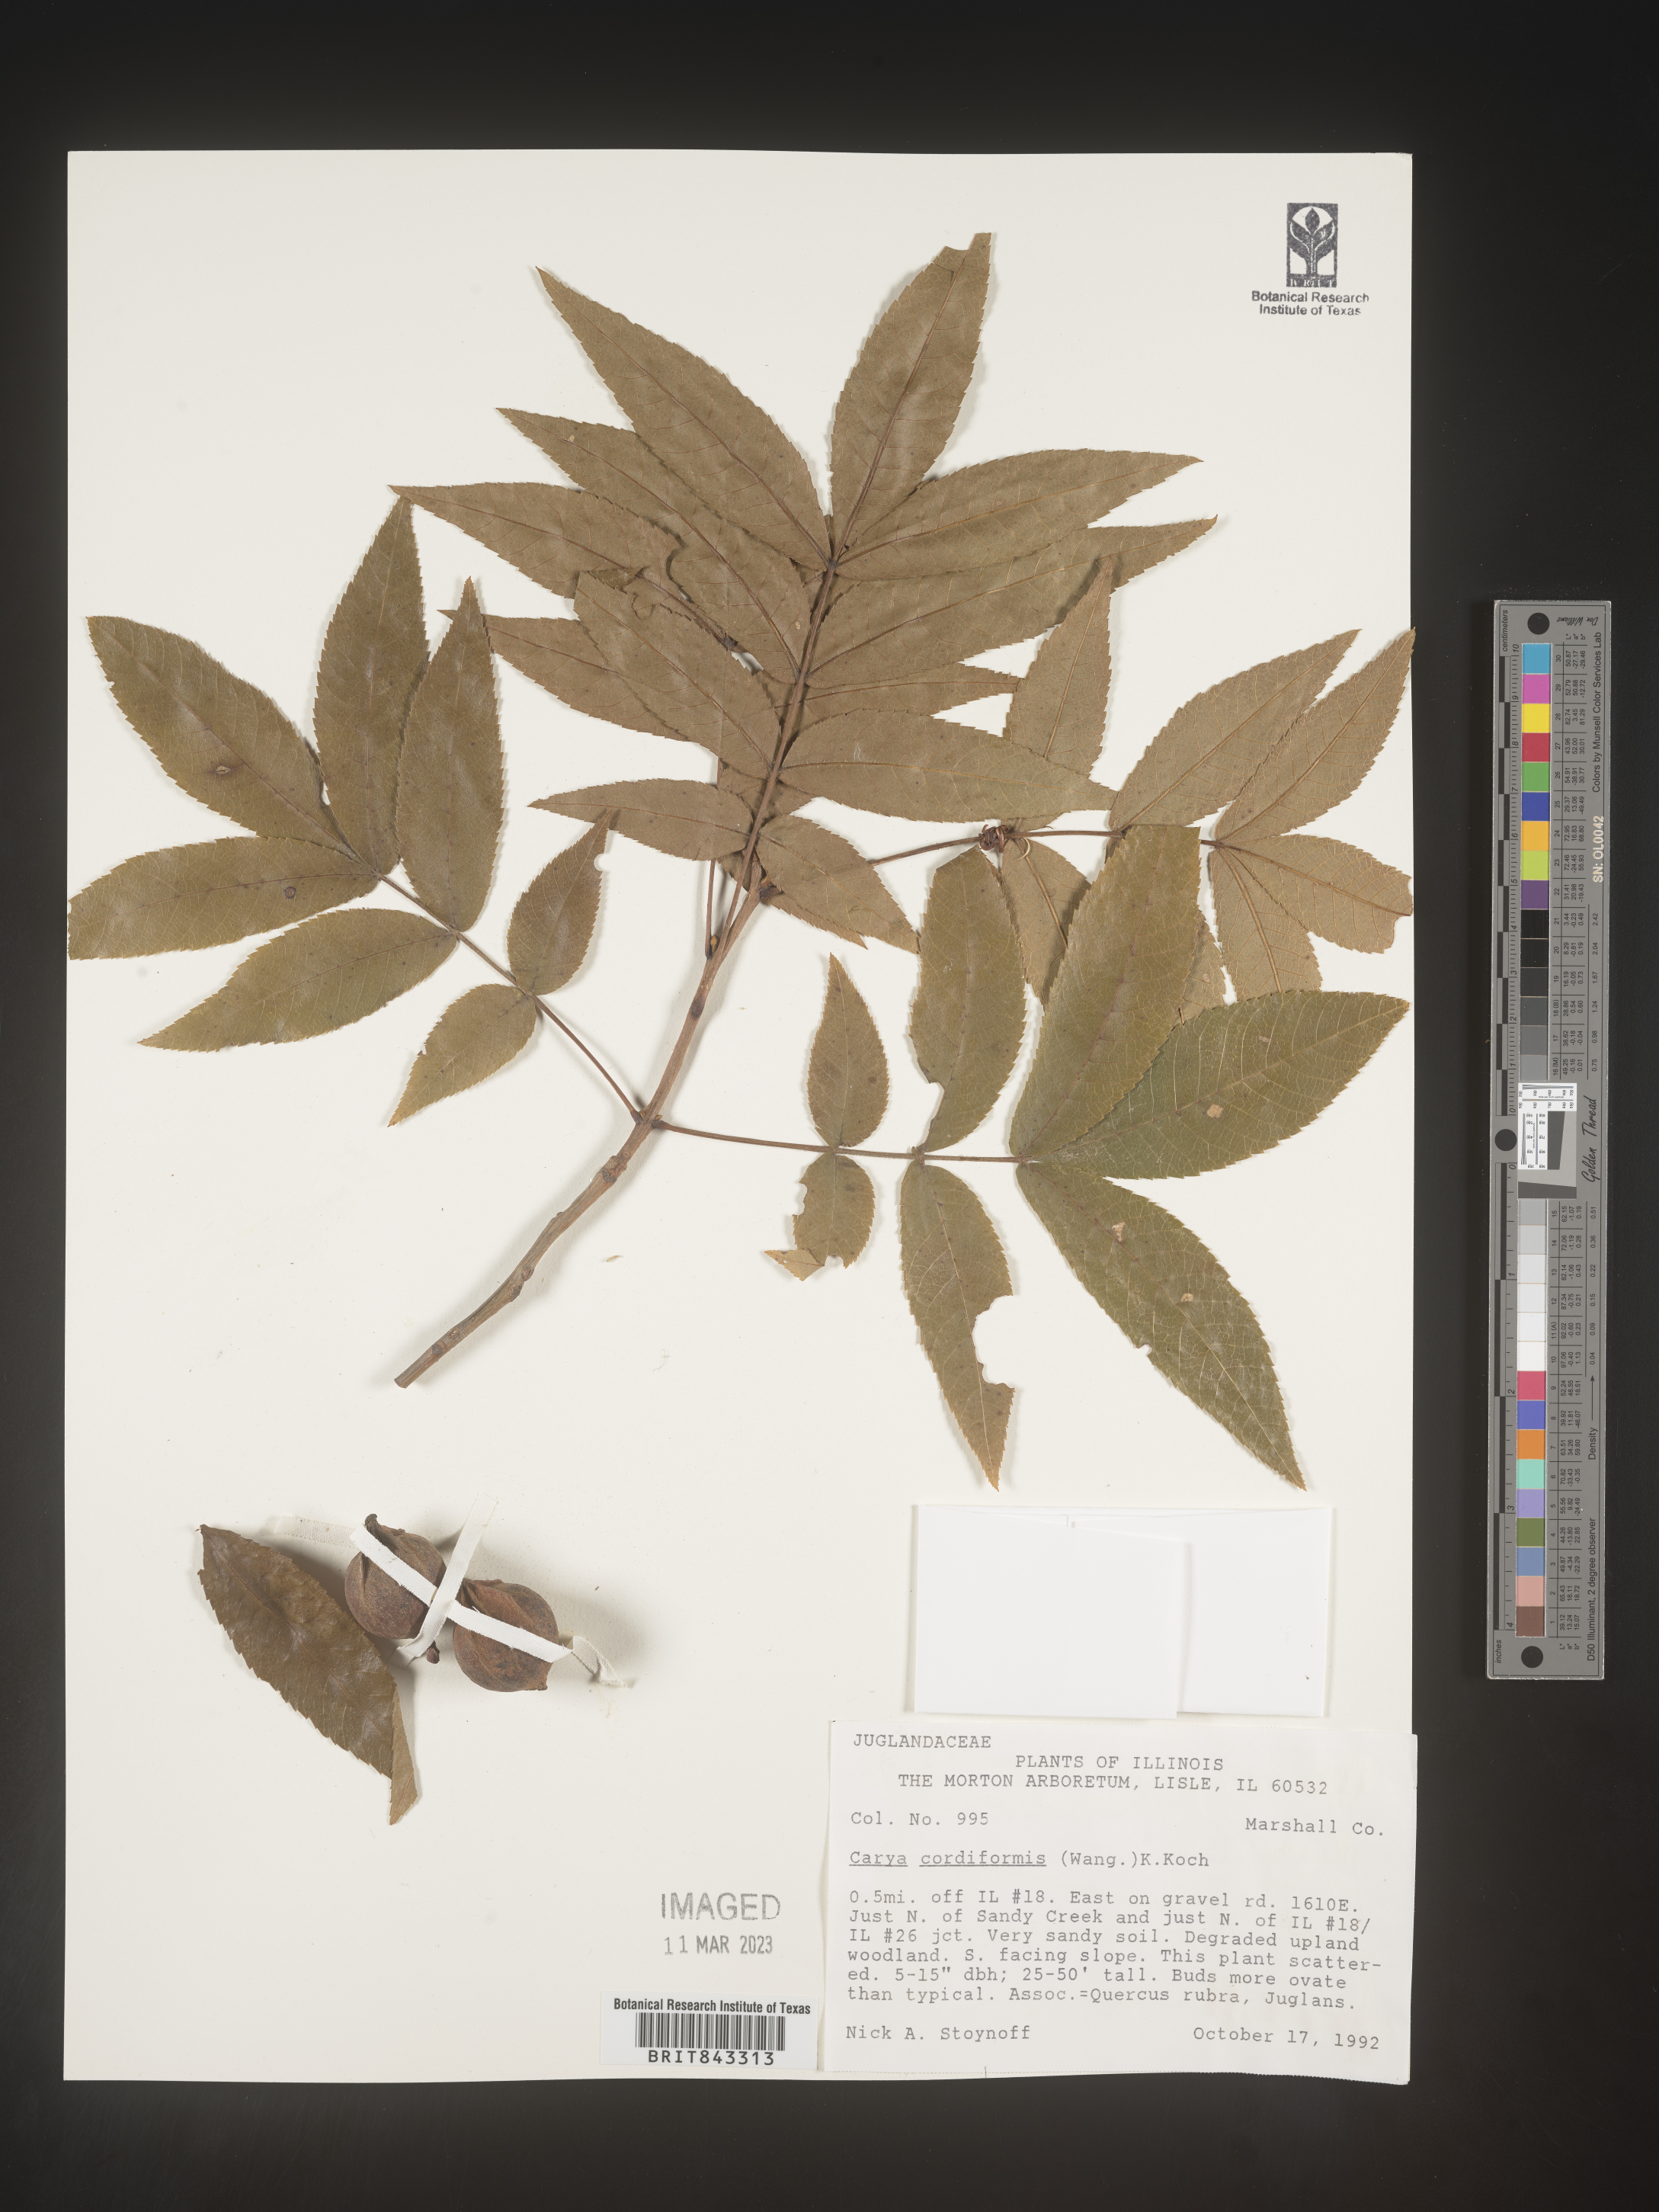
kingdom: Plantae
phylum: Tracheophyta
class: Magnoliopsida
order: Fagales
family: Juglandaceae
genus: Carya
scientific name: Carya cordiformis
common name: Bitternut hickory
